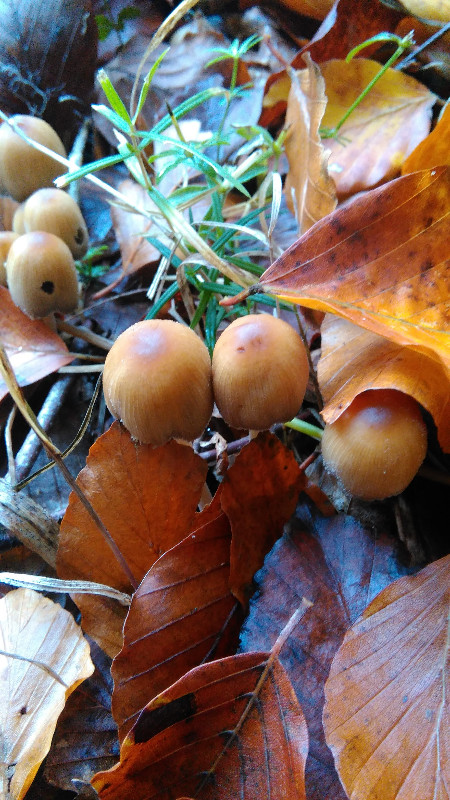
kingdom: Fungi
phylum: Basidiomycota
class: Agaricomycetes
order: Agaricales
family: Psathyrellaceae
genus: Coprinellus
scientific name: Coprinellus micaceus
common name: glimmer-blækhat
